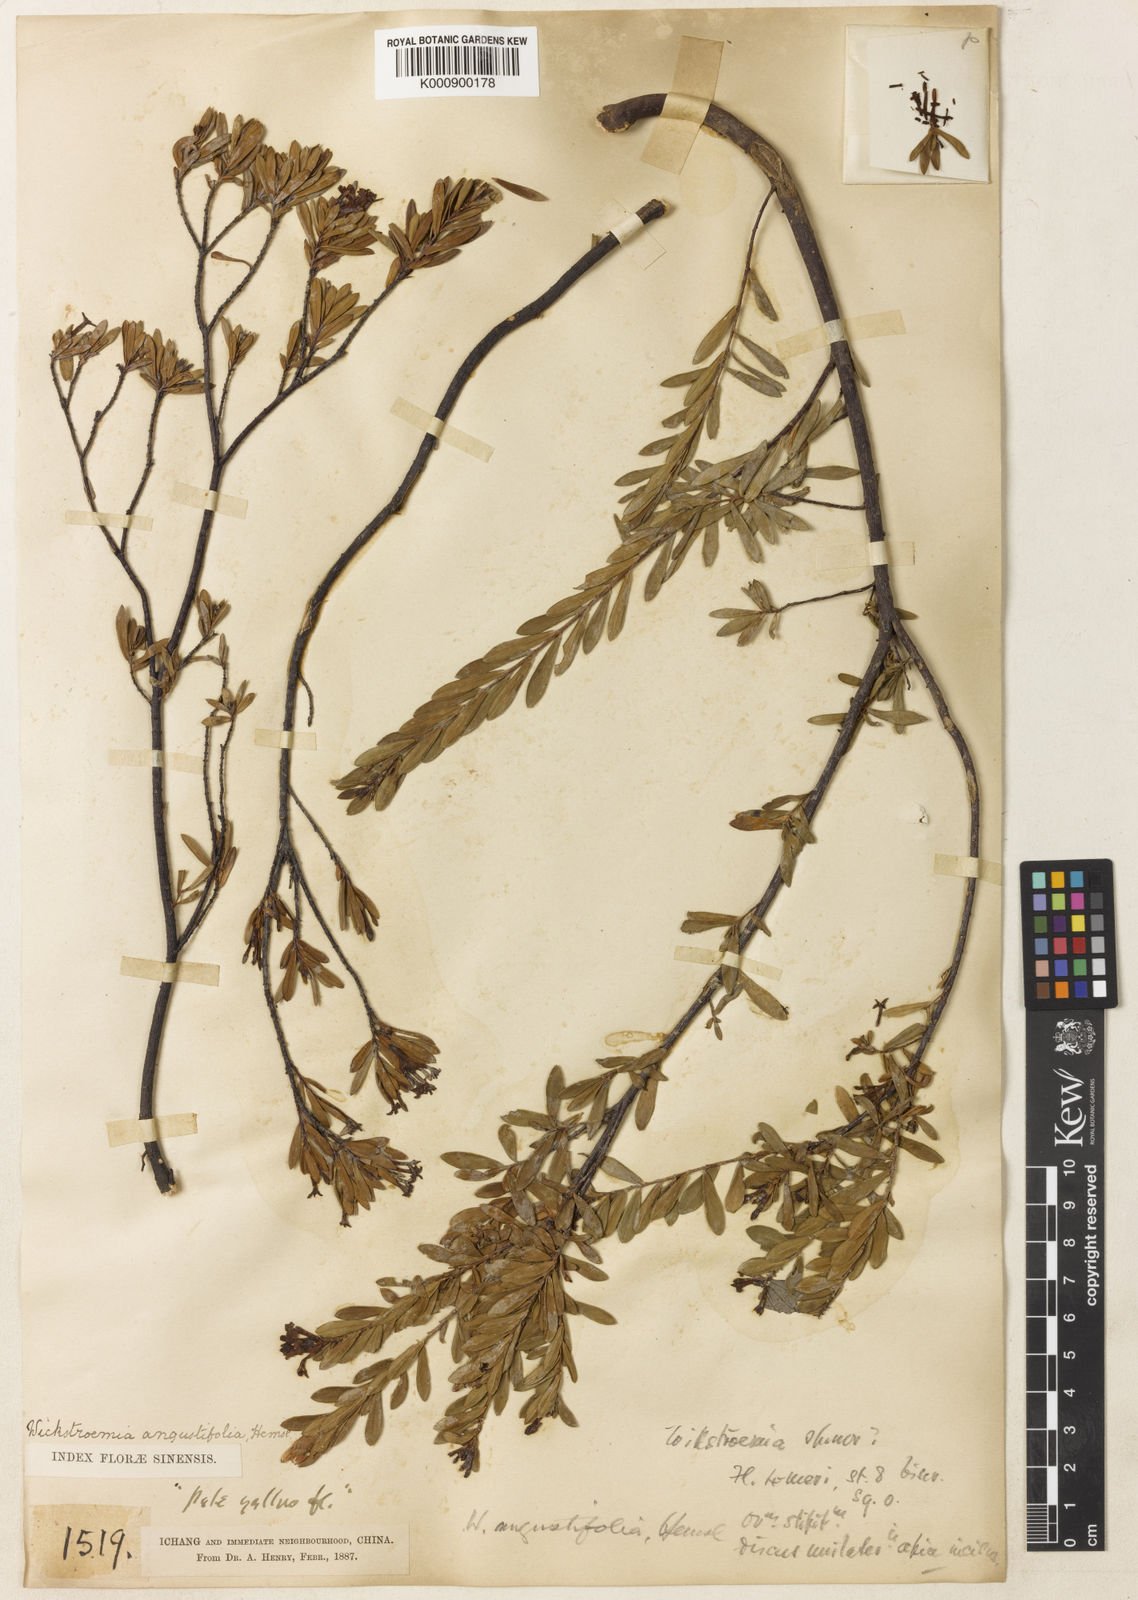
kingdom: Plantae
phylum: Tracheophyta
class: Magnoliopsida
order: Malvales
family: Thymelaeaceae
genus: Wikstroemia
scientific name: Wikstroemia angustifolia
